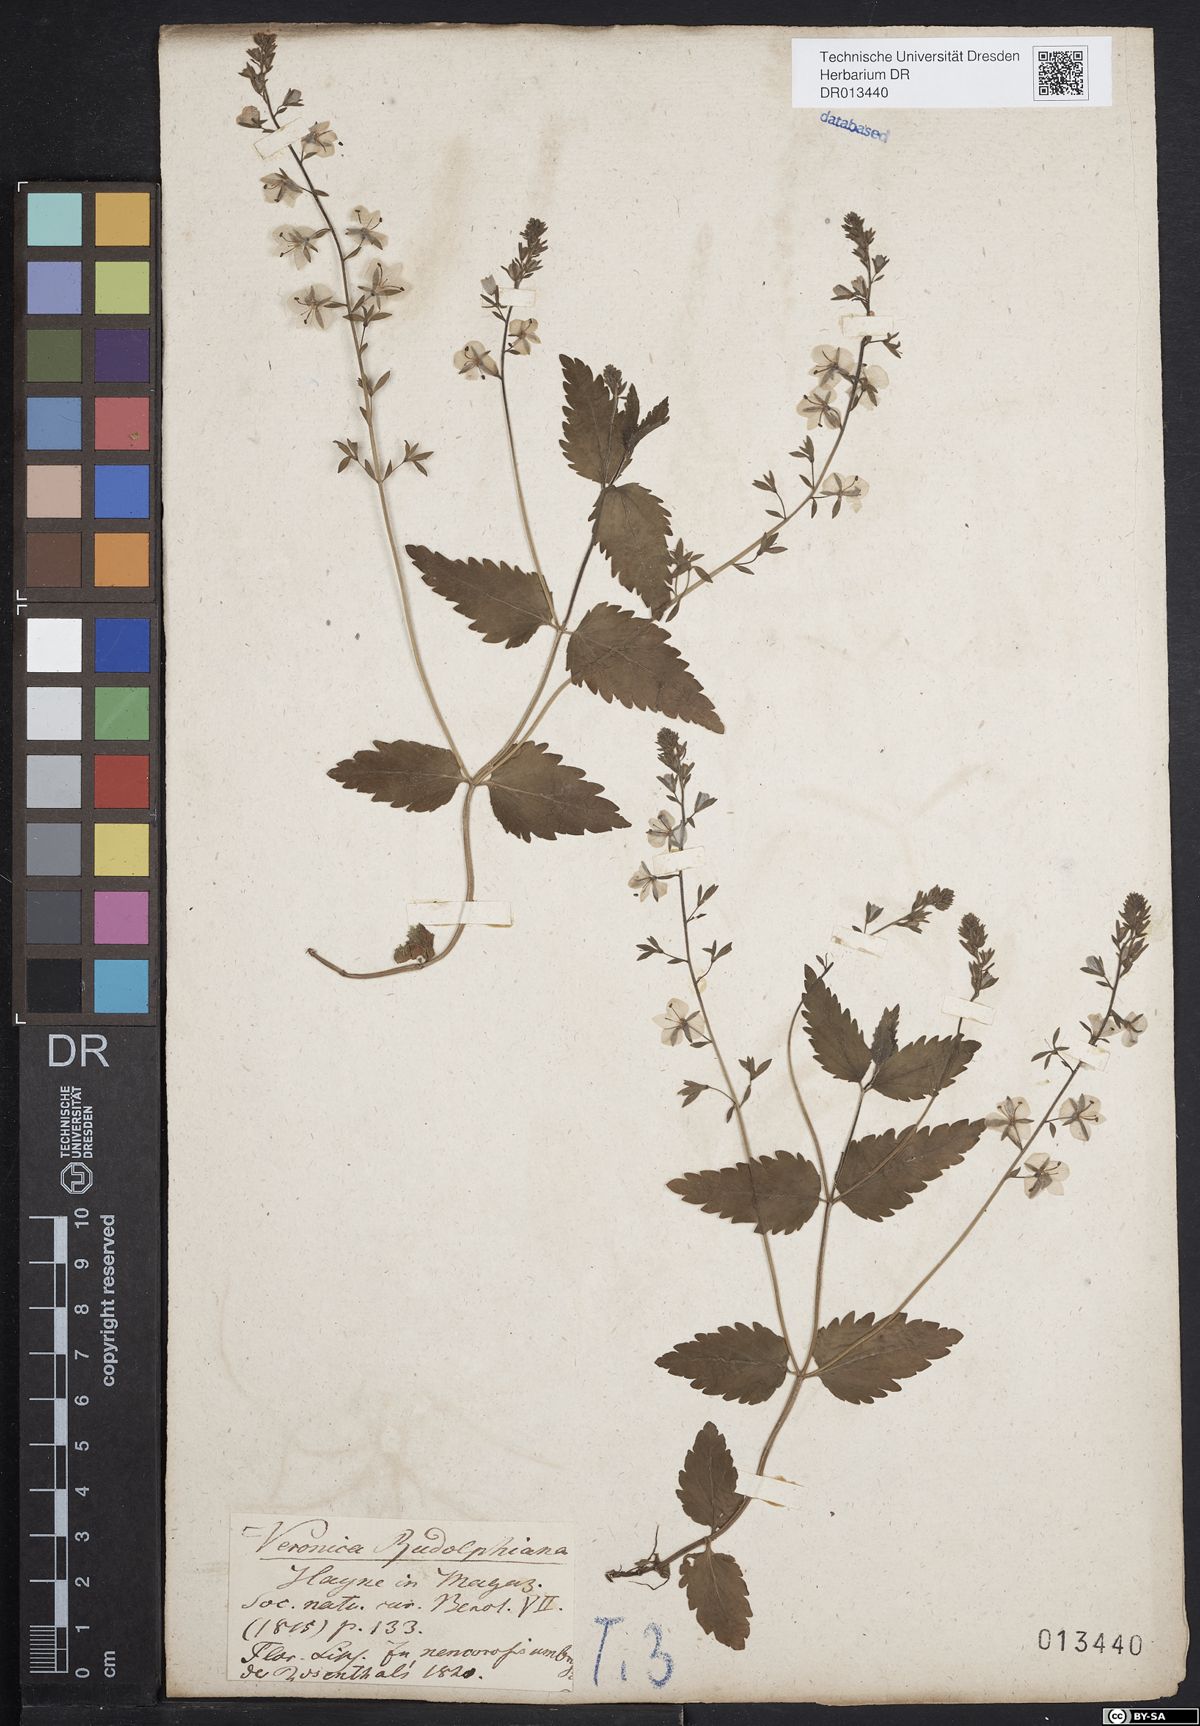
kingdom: Plantae
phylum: Tracheophyta
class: Magnoliopsida
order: Lamiales
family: Plantaginaceae
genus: Veronica
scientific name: Veronica chamaedrys
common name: Germander speedwell
